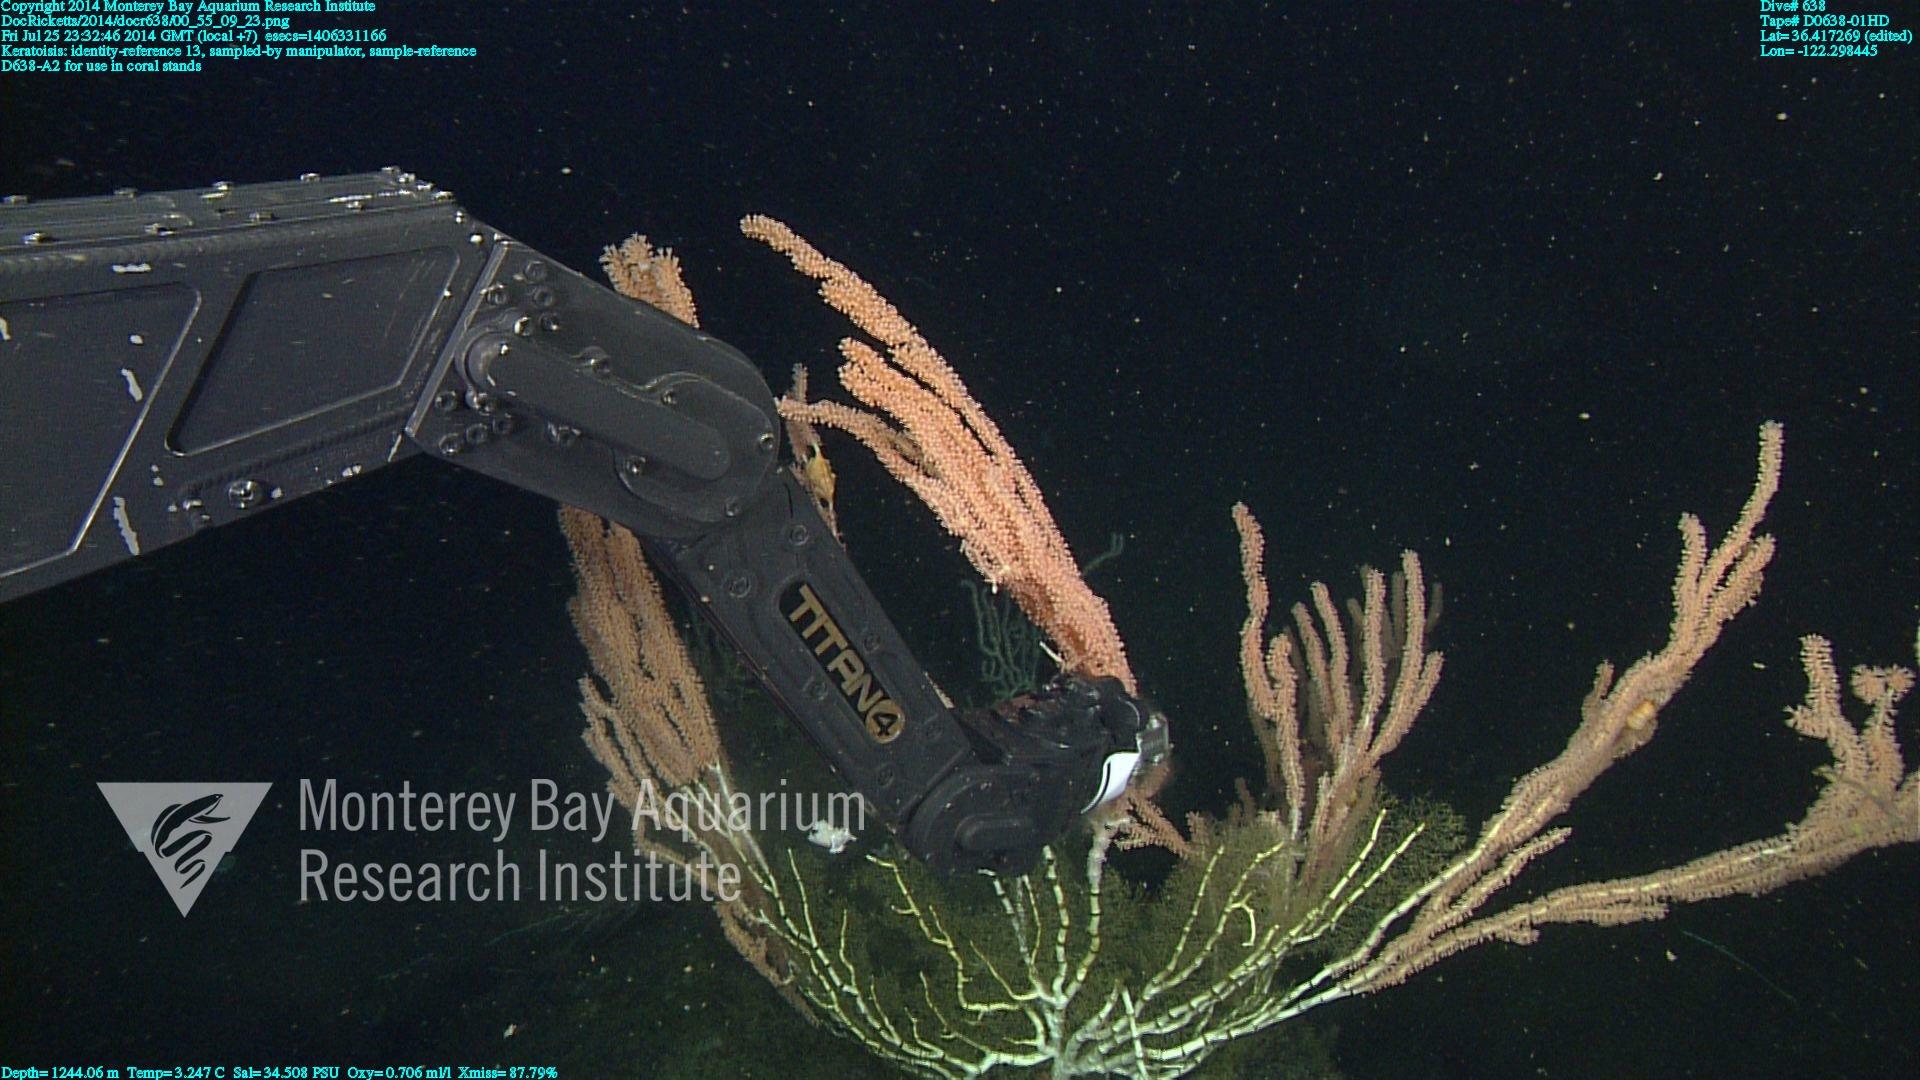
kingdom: Animalia
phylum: Cnidaria
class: Anthozoa
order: Scleralcyonacea
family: Keratoisididae
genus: Keratoisis
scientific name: Keratoisis
